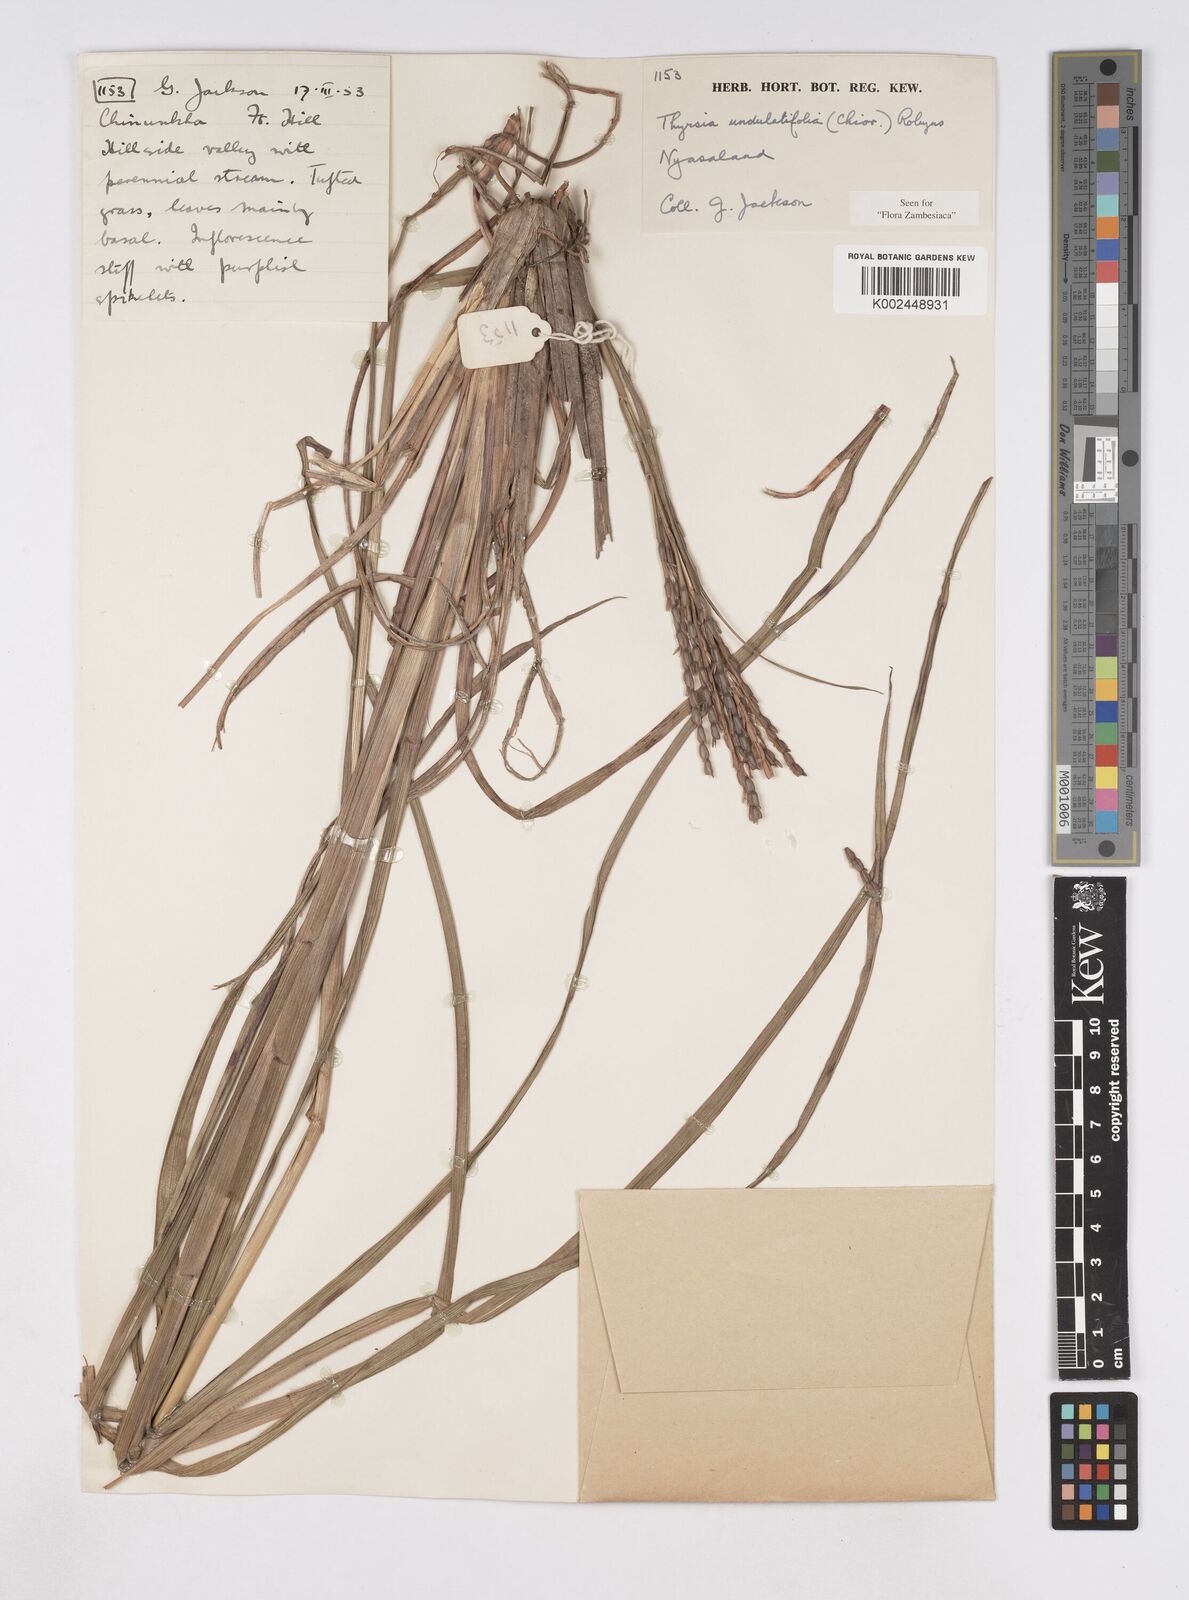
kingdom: Plantae
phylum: Tracheophyta
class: Liliopsida
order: Poales
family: Poaceae
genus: Thyrsia
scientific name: Thyrsia huillensis
